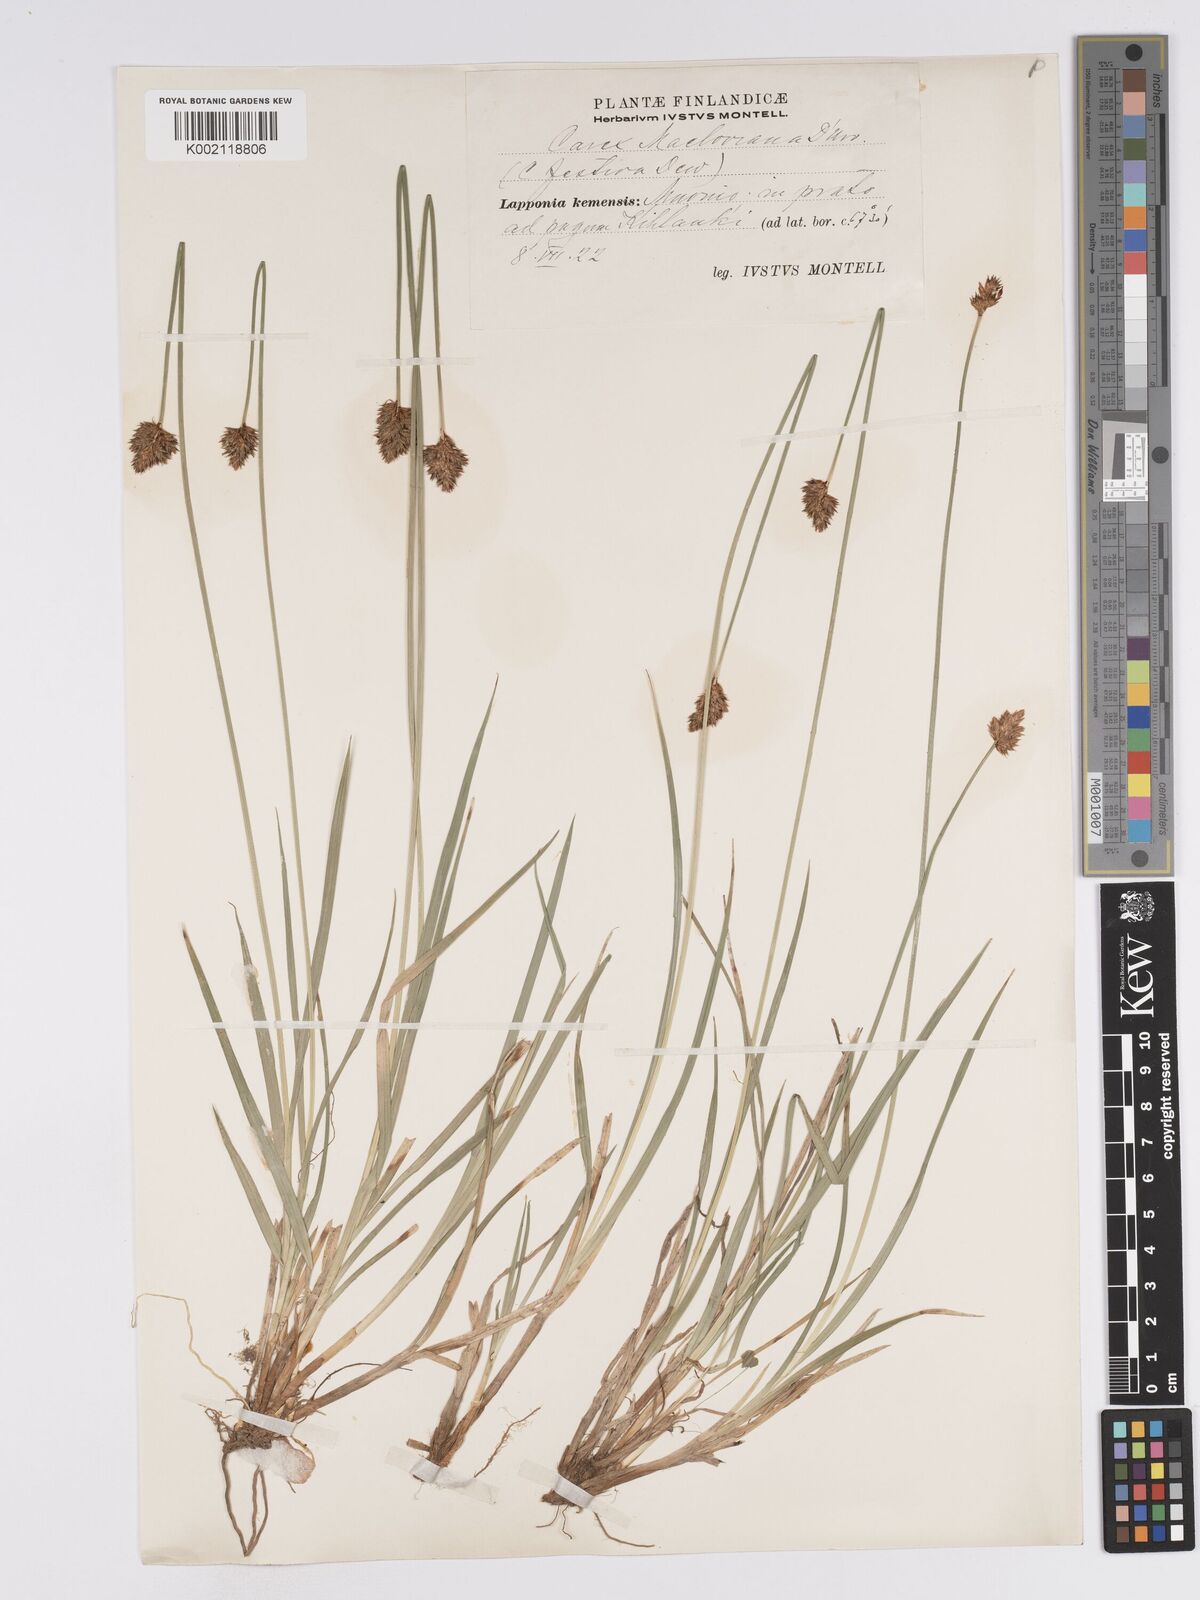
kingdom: Plantae
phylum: Tracheophyta
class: Liliopsida
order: Poales
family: Cyperaceae
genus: Carex
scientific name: Carex macloviana
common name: Falkland island sedge
